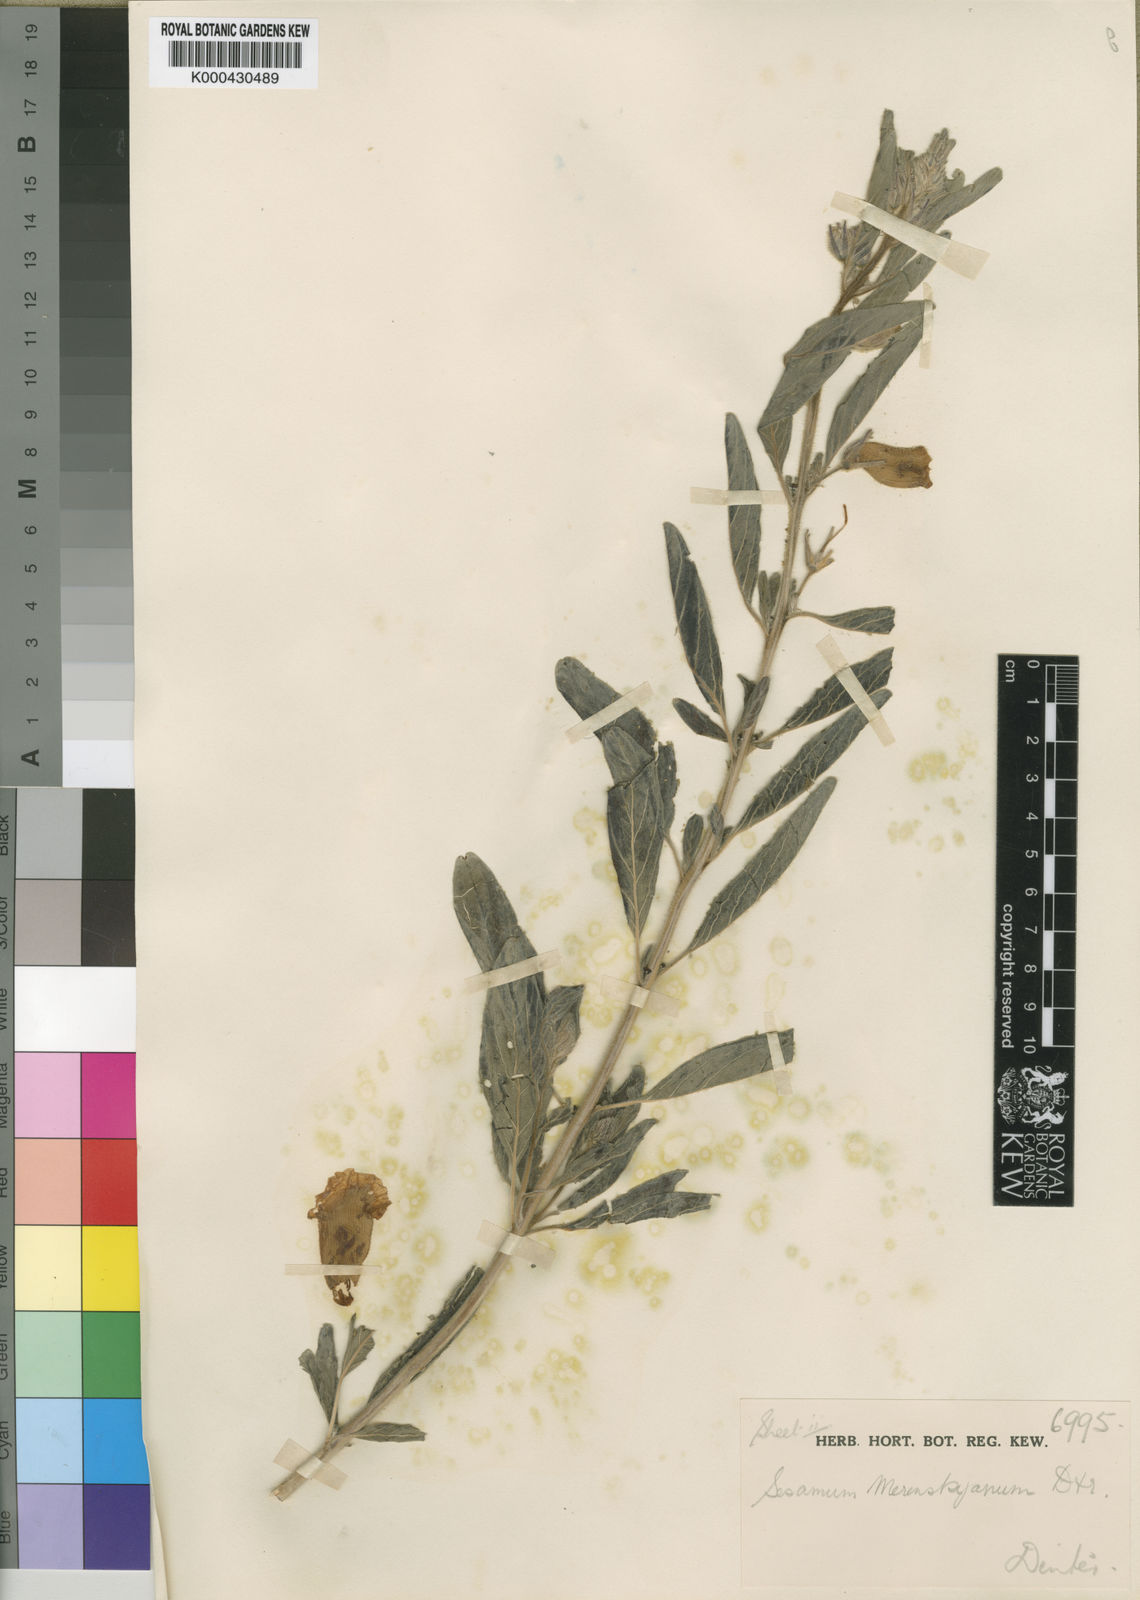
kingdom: Plantae
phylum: Tracheophyta
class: Magnoliopsida
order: Lamiales
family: Pedaliaceae
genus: Sesamum
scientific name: Sesamum rigidum
